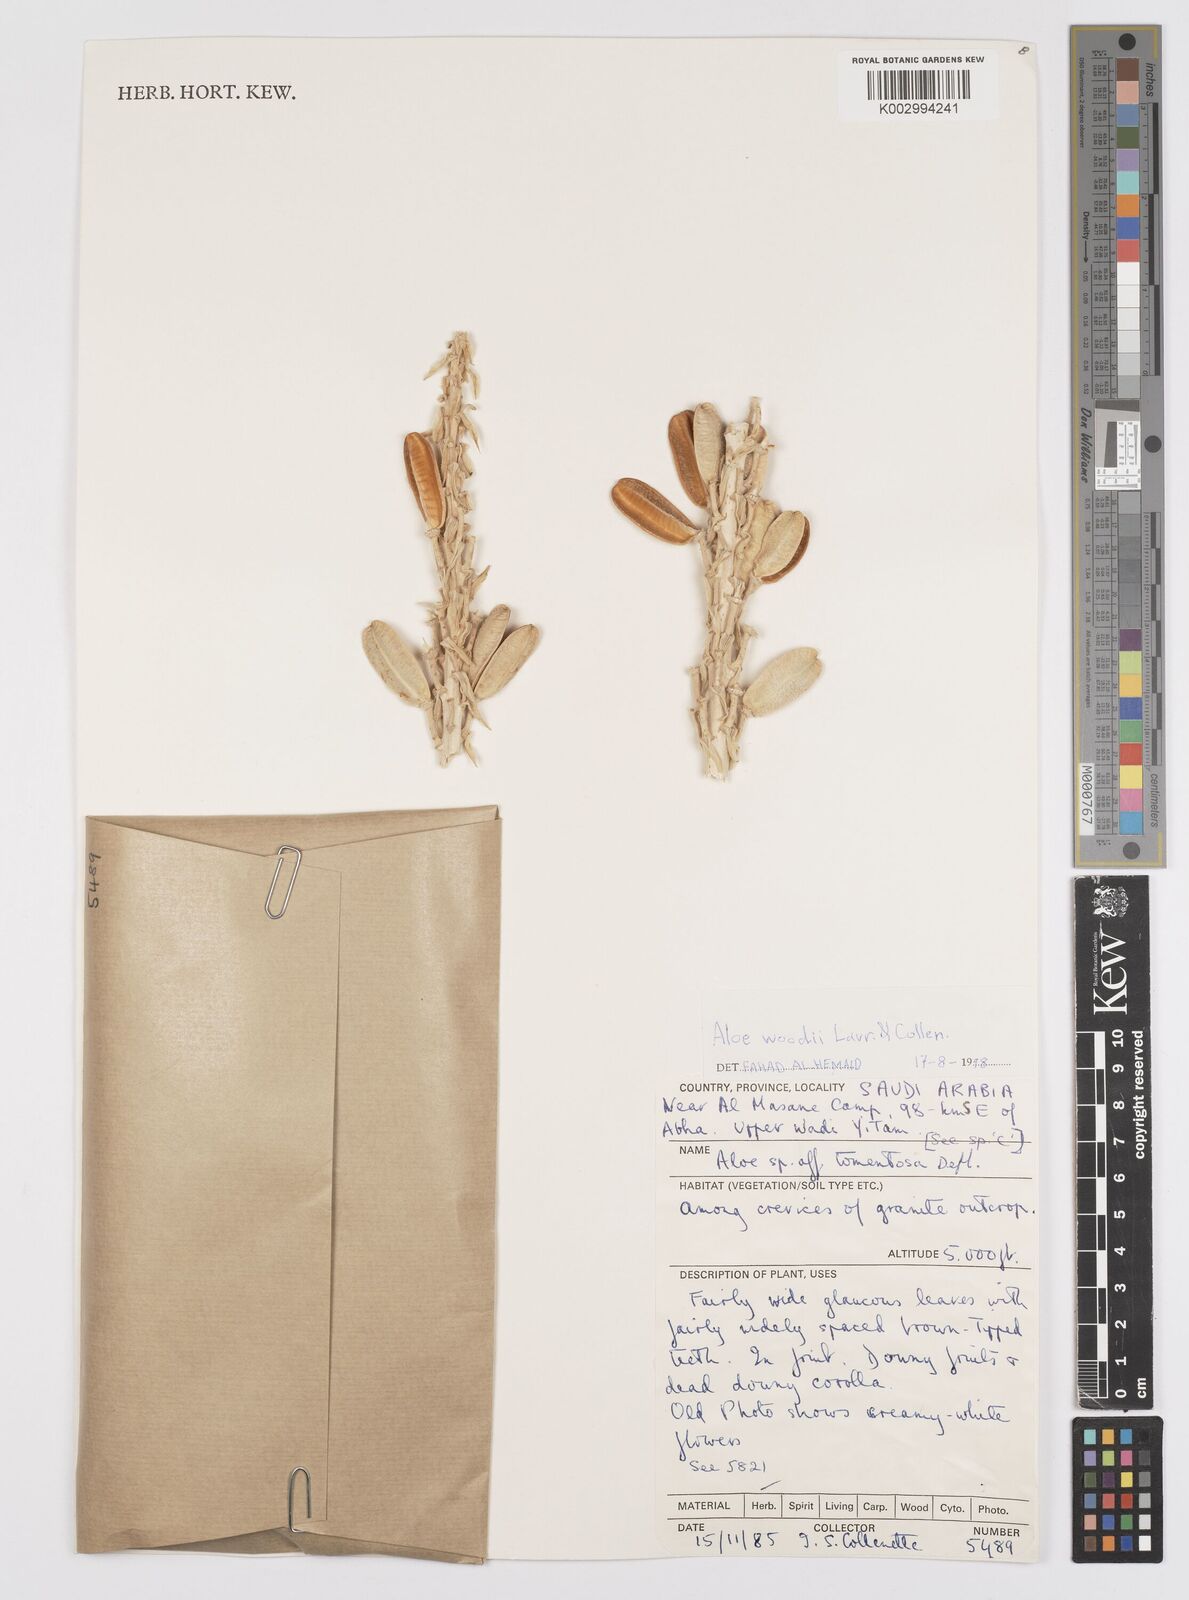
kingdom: Plantae
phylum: Tracheophyta
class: Liliopsida
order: Asparagales
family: Asphodelaceae
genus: Aloe
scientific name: Aloe woodii
